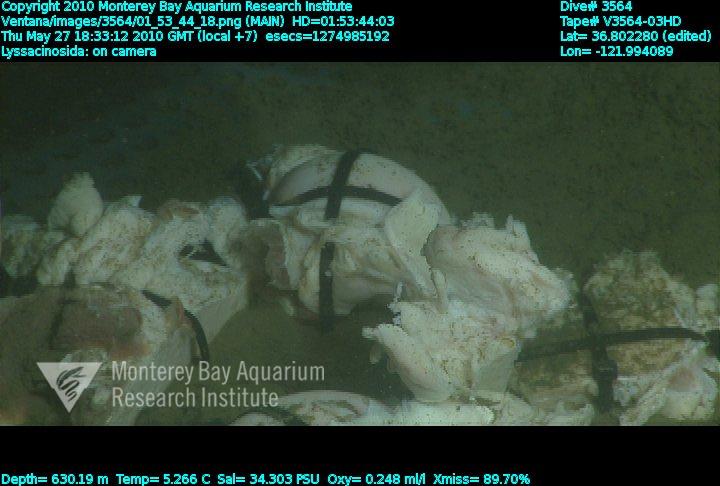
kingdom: Animalia
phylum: Porifera
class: Hexactinellida
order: Lyssacinosida
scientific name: Lyssacinosida
